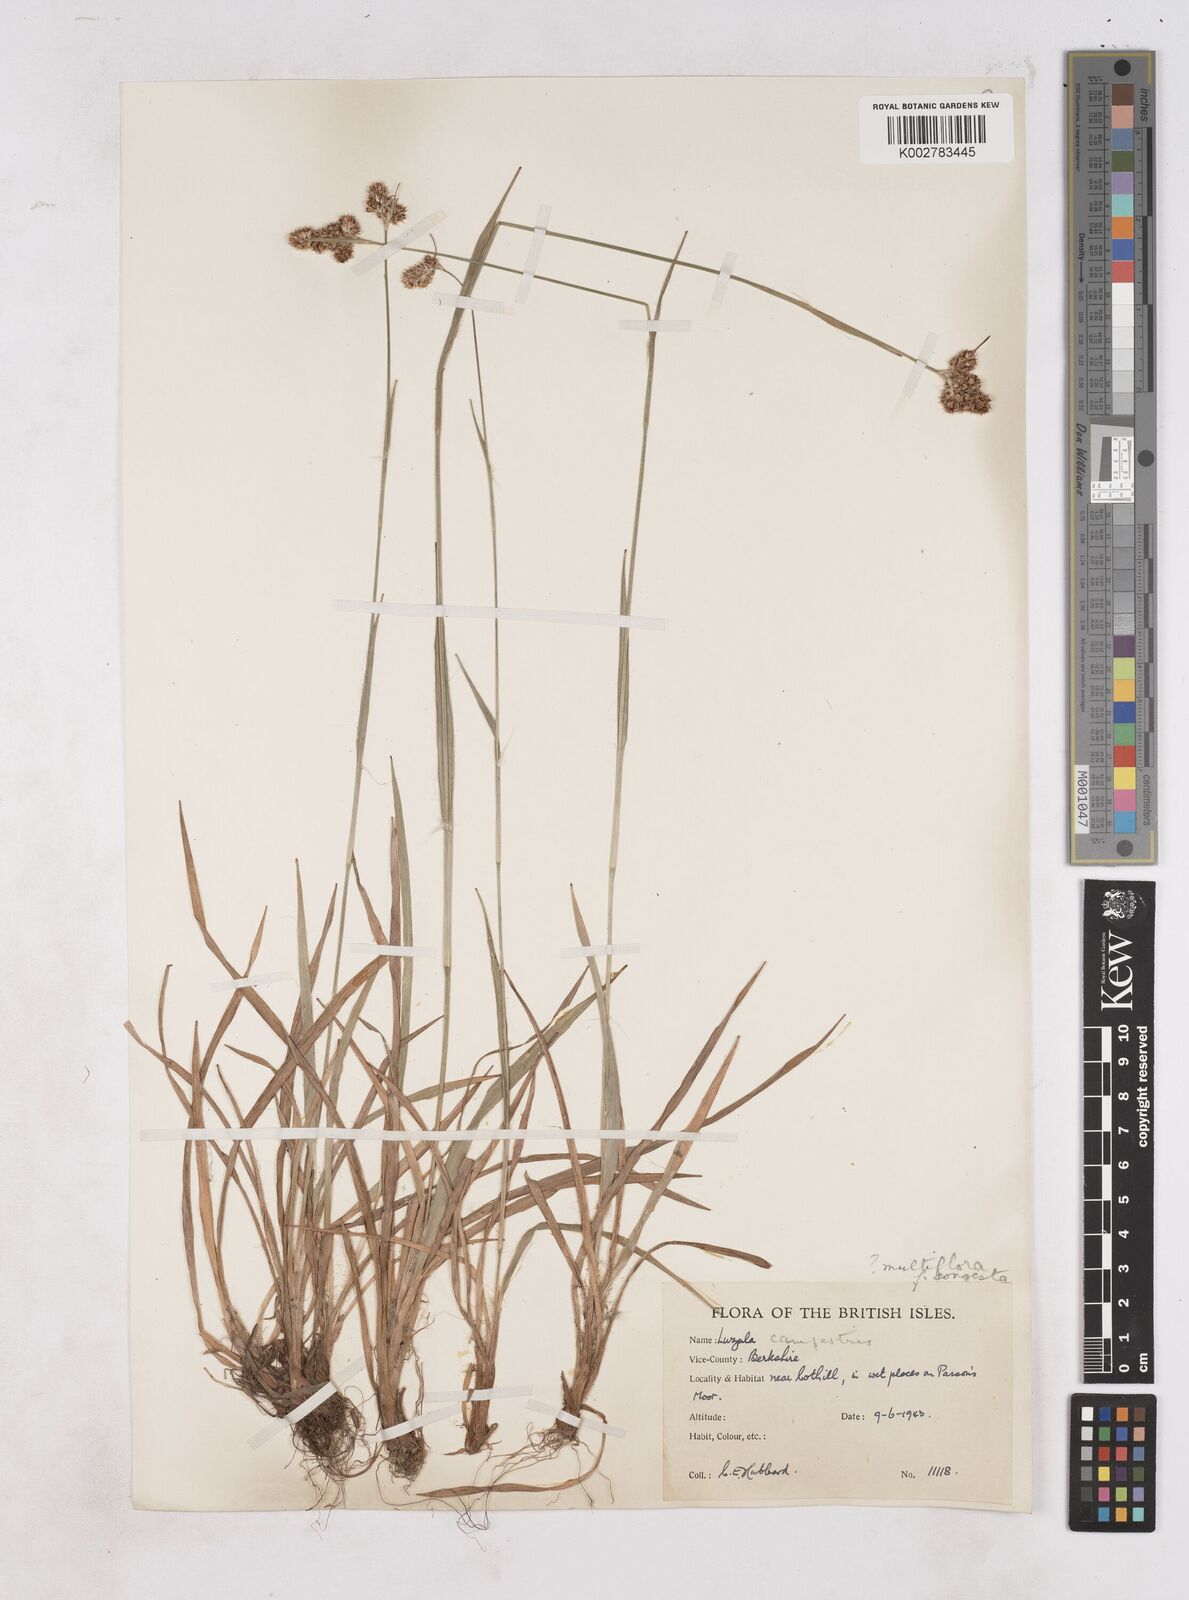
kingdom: Plantae
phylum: Tracheophyta
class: Liliopsida
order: Poales
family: Juncaceae
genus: Luzula
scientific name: Luzula campestris
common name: Field wood-rush
